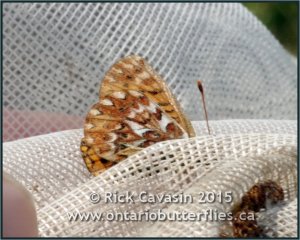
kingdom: Animalia
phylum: Arthropoda
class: Insecta
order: Lepidoptera
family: Nymphalidae
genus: Boloria
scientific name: Boloria freija
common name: Freija Fritillary
